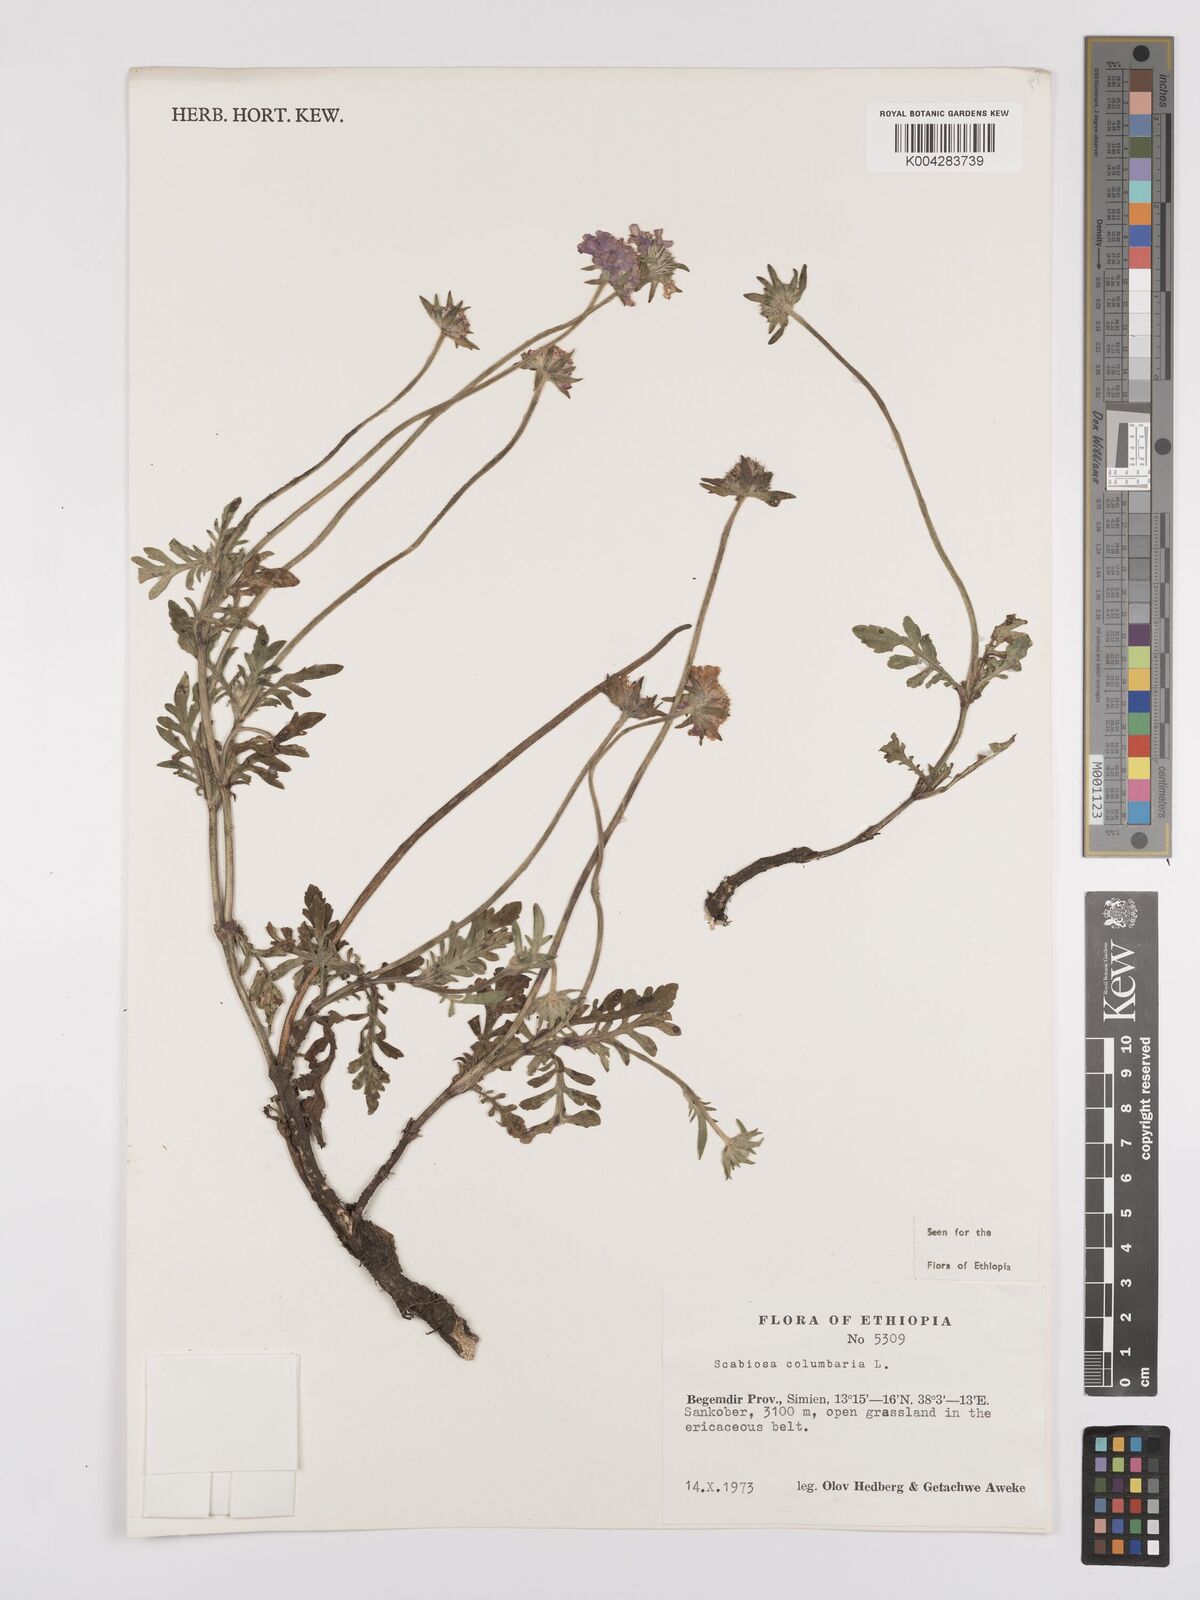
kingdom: Plantae
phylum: Tracheophyta
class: Magnoliopsida
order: Dipsacales
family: Caprifoliaceae
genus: Scabiosa
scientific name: Scabiosa columbaria
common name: Small scabious
